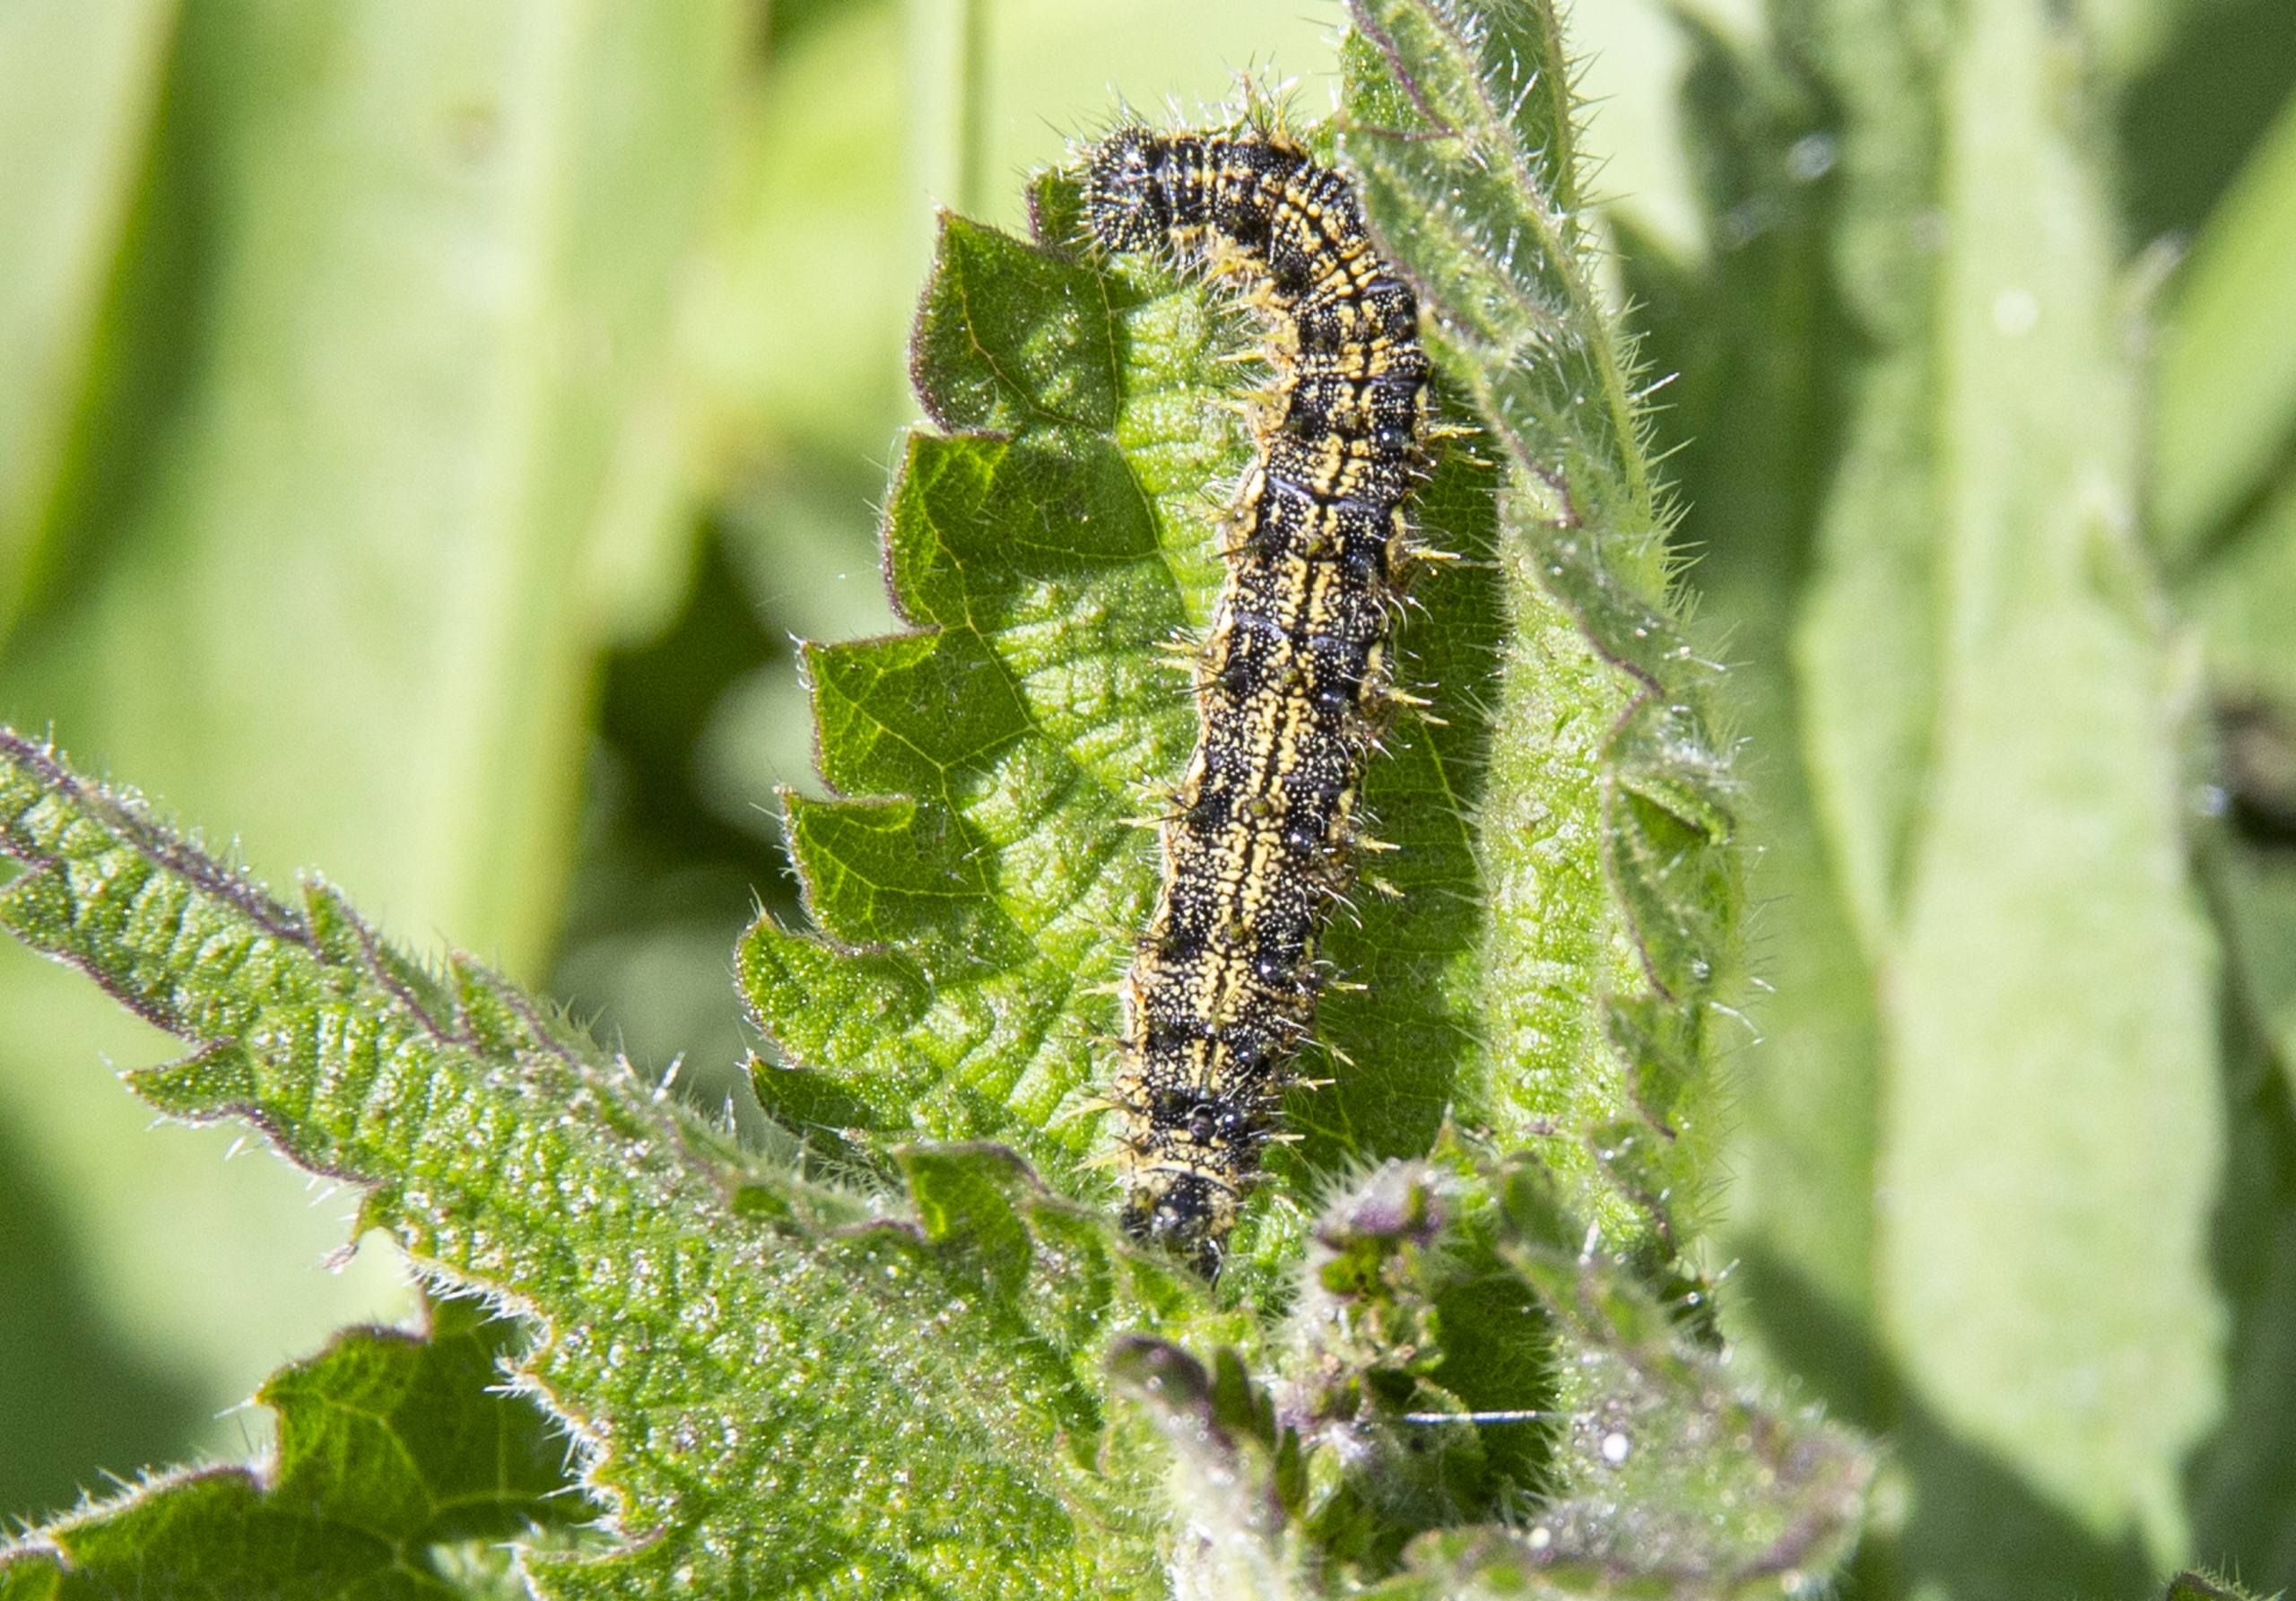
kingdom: Animalia
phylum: Arthropoda
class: Insecta
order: Lepidoptera
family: Nymphalidae
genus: Aglais
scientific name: Aglais urticae
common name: Nældens takvinge
